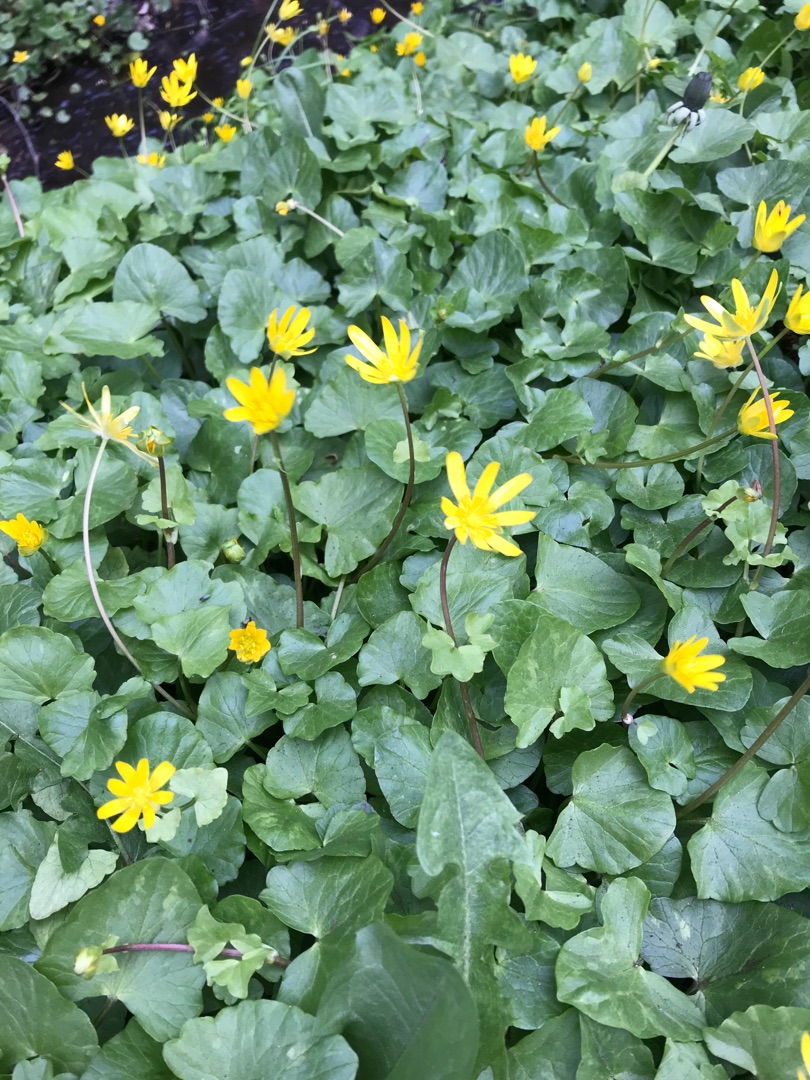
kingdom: Plantae
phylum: Tracheophyta
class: Magnoliopsida
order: Ranunculales
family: Ranunculaceae
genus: Ficaria
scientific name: Ficaria verna
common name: Vorterod
